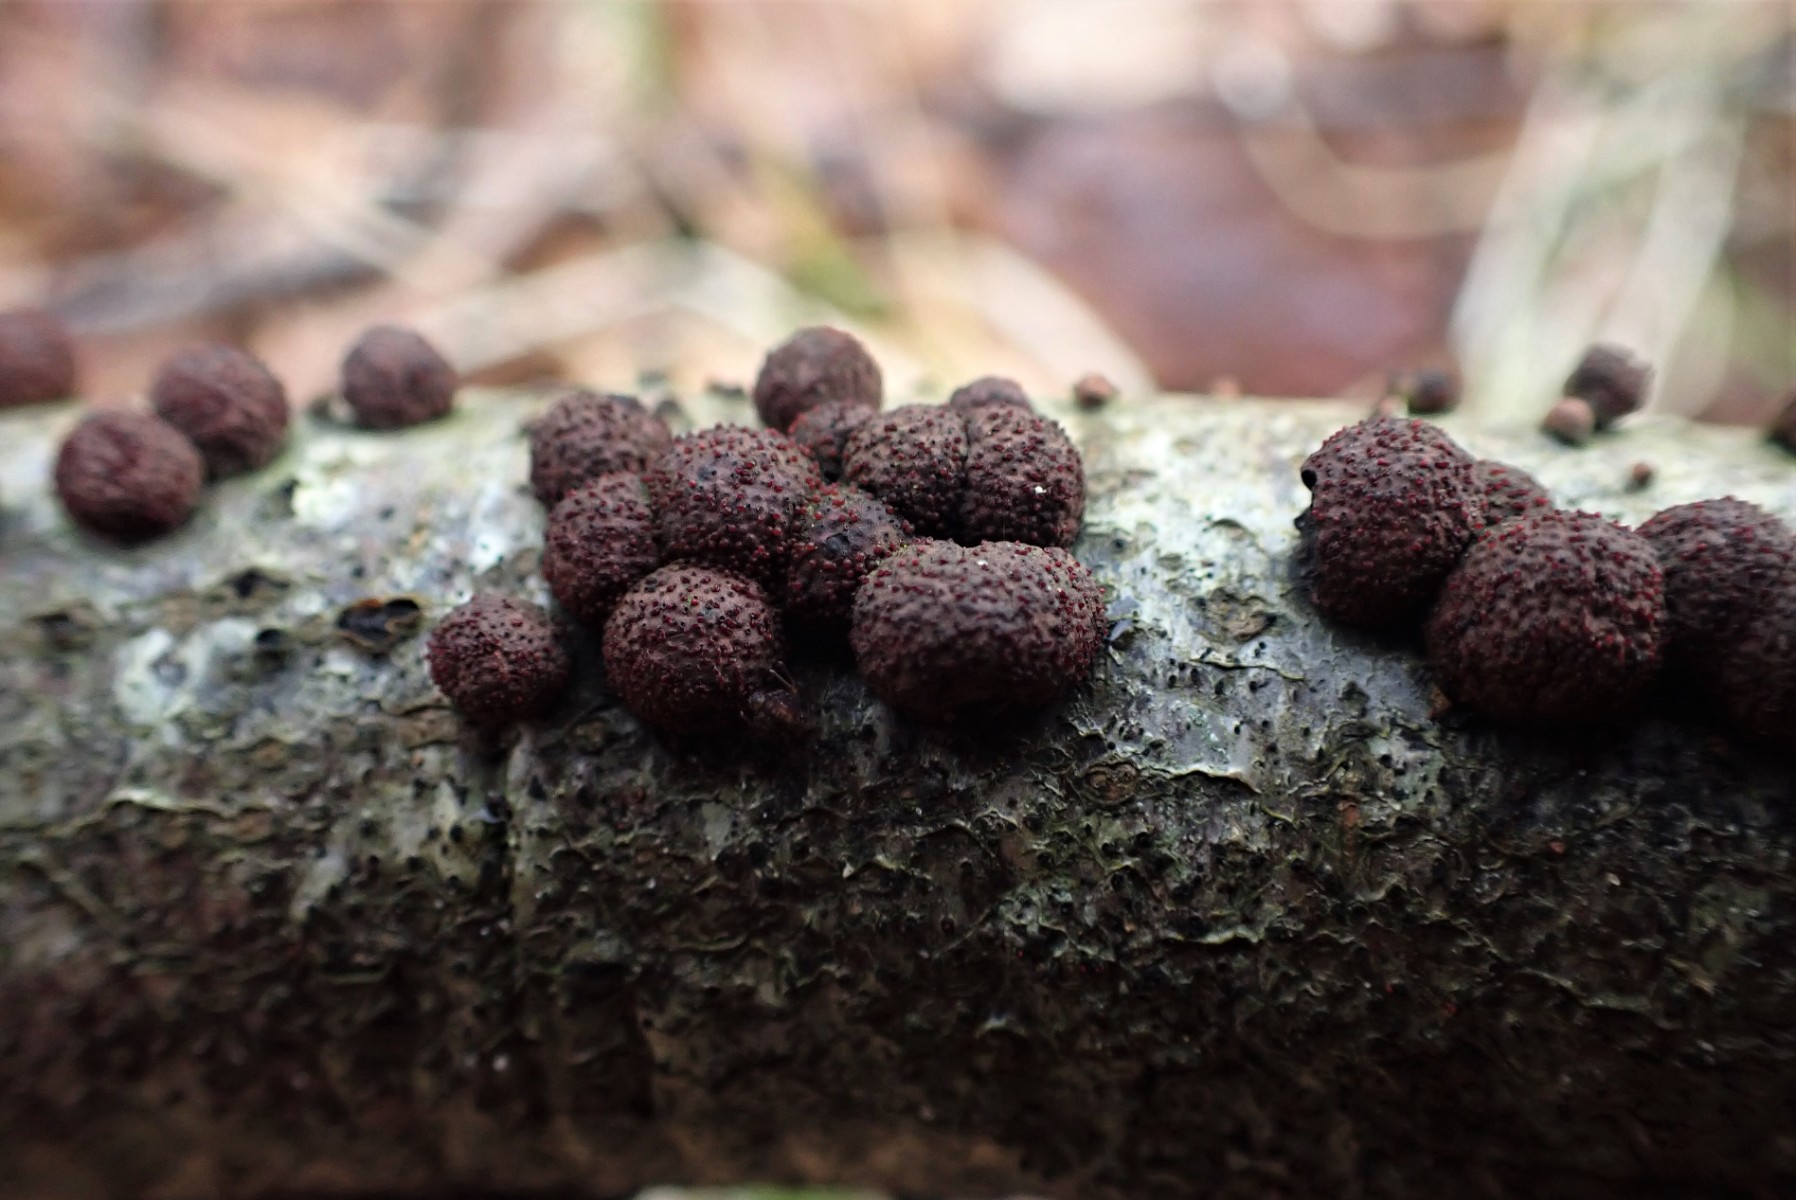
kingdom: Fungi
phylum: Ascomycota
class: Sordariomycetes
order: Hypocreales
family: Nectriaceae
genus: Cosmospora
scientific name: Cosmospora arxii
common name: kuljordbær-cinnobersvamp
